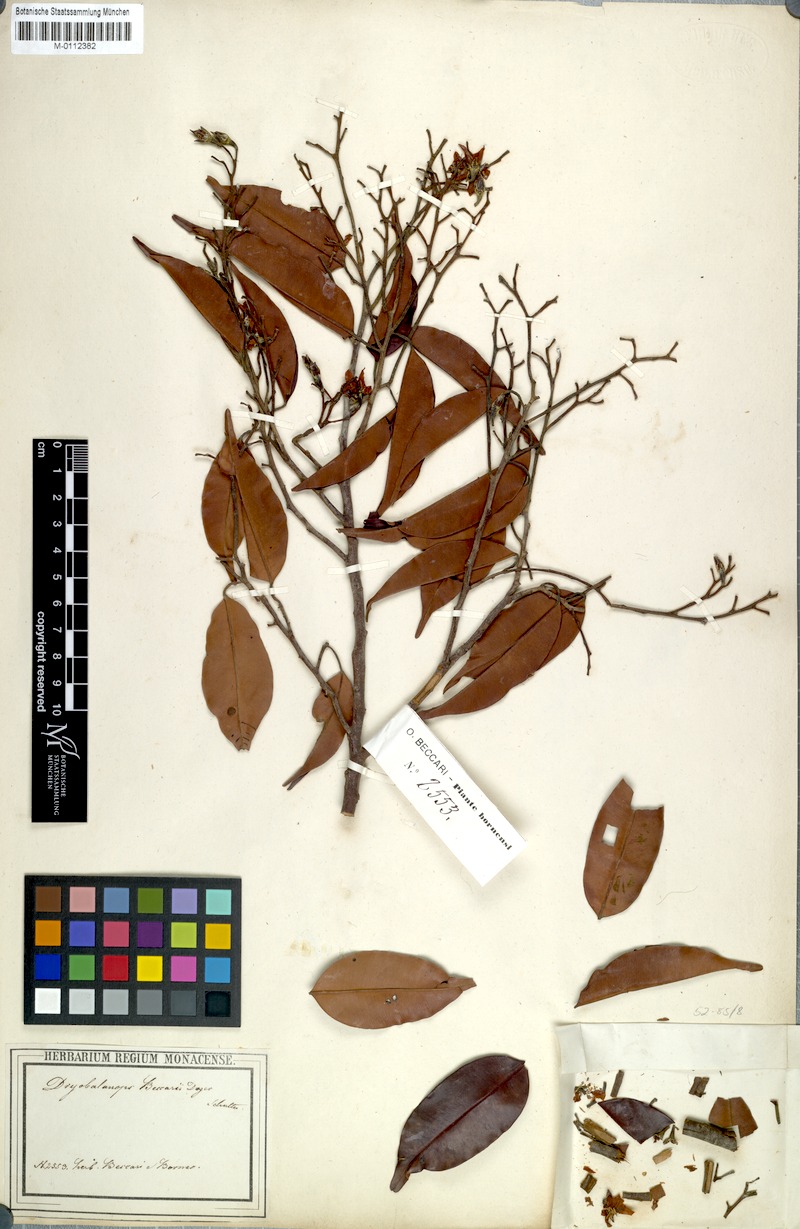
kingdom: Plantae
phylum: Tracheophyta
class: Magnoliopsida
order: Malvales
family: Dipterocarpaceae
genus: Dryobalanops
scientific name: Dryobalanops beccarii
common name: Sabah kapur
